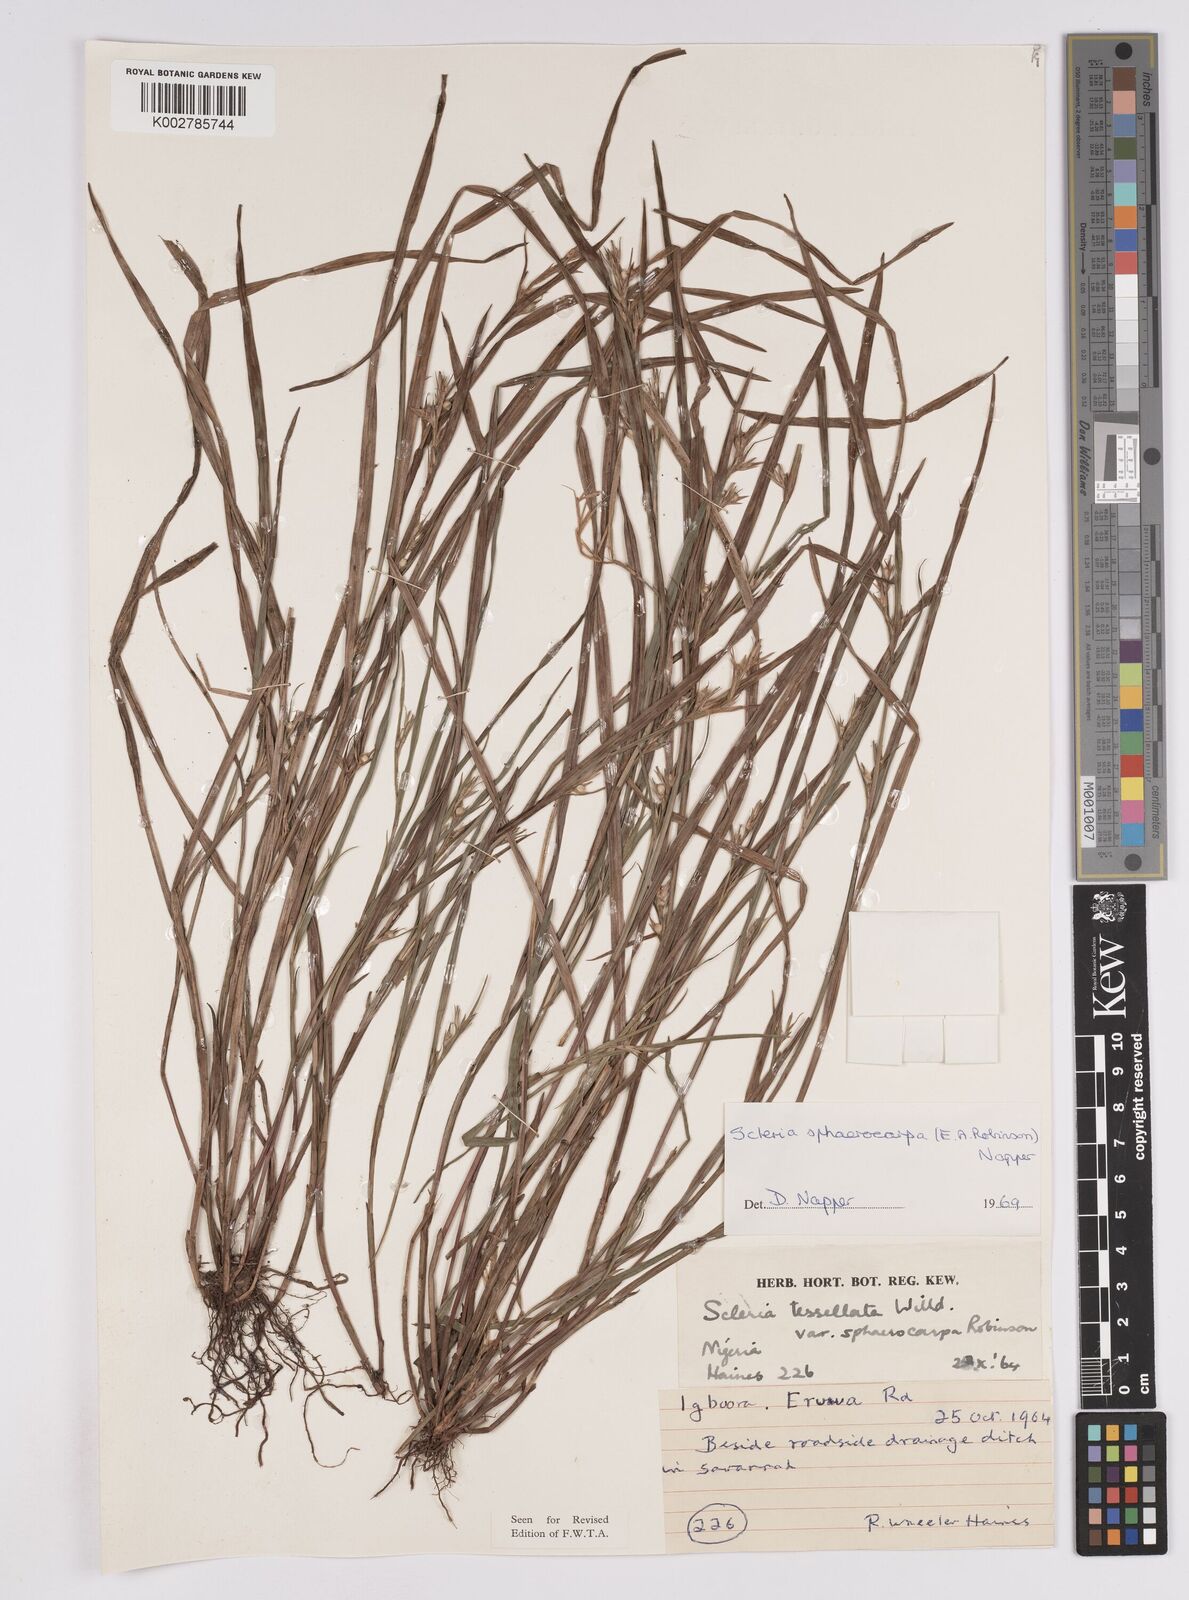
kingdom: Plantae
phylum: Tracheophyta
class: Liliopsida
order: Poales
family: Cyperaceae
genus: Scleria
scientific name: Scleria tessellata
